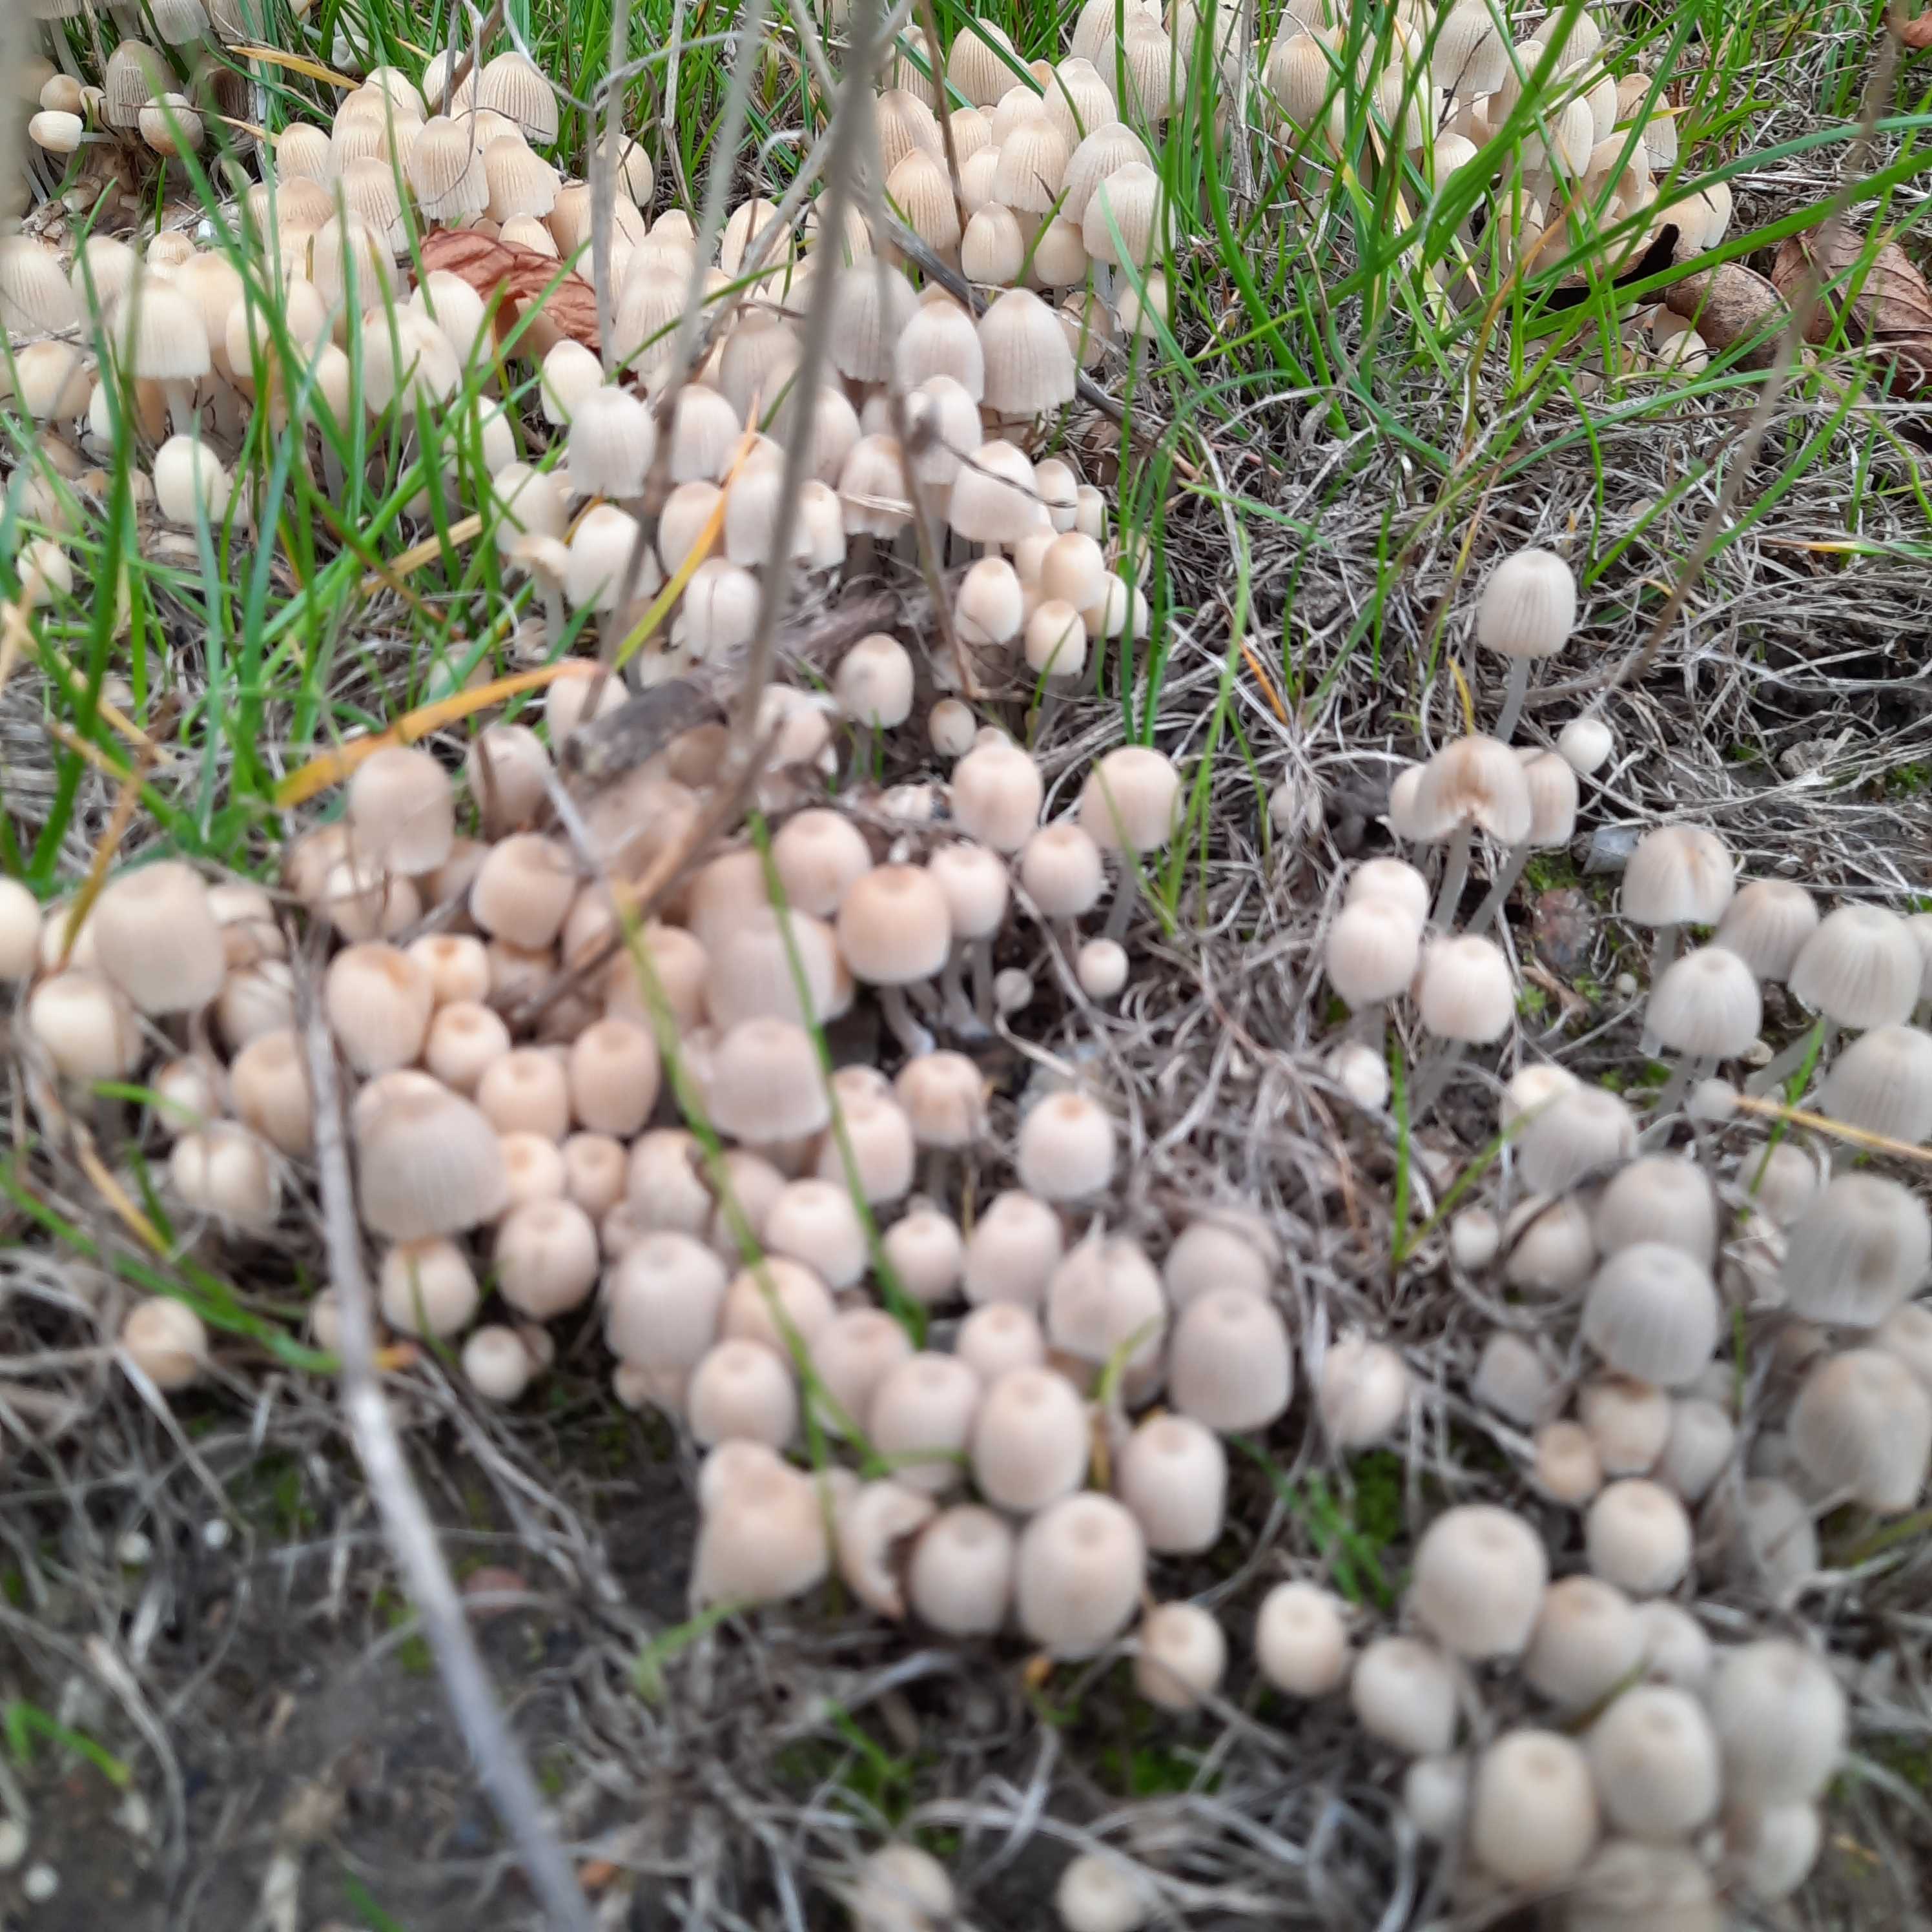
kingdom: Fungi
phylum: Basidiomycota
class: Agaricomycetes
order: Agaricales
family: Psathyrellaceae
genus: Coprinellus
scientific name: Coprinellus disseminatus
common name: bredsået blækhat
